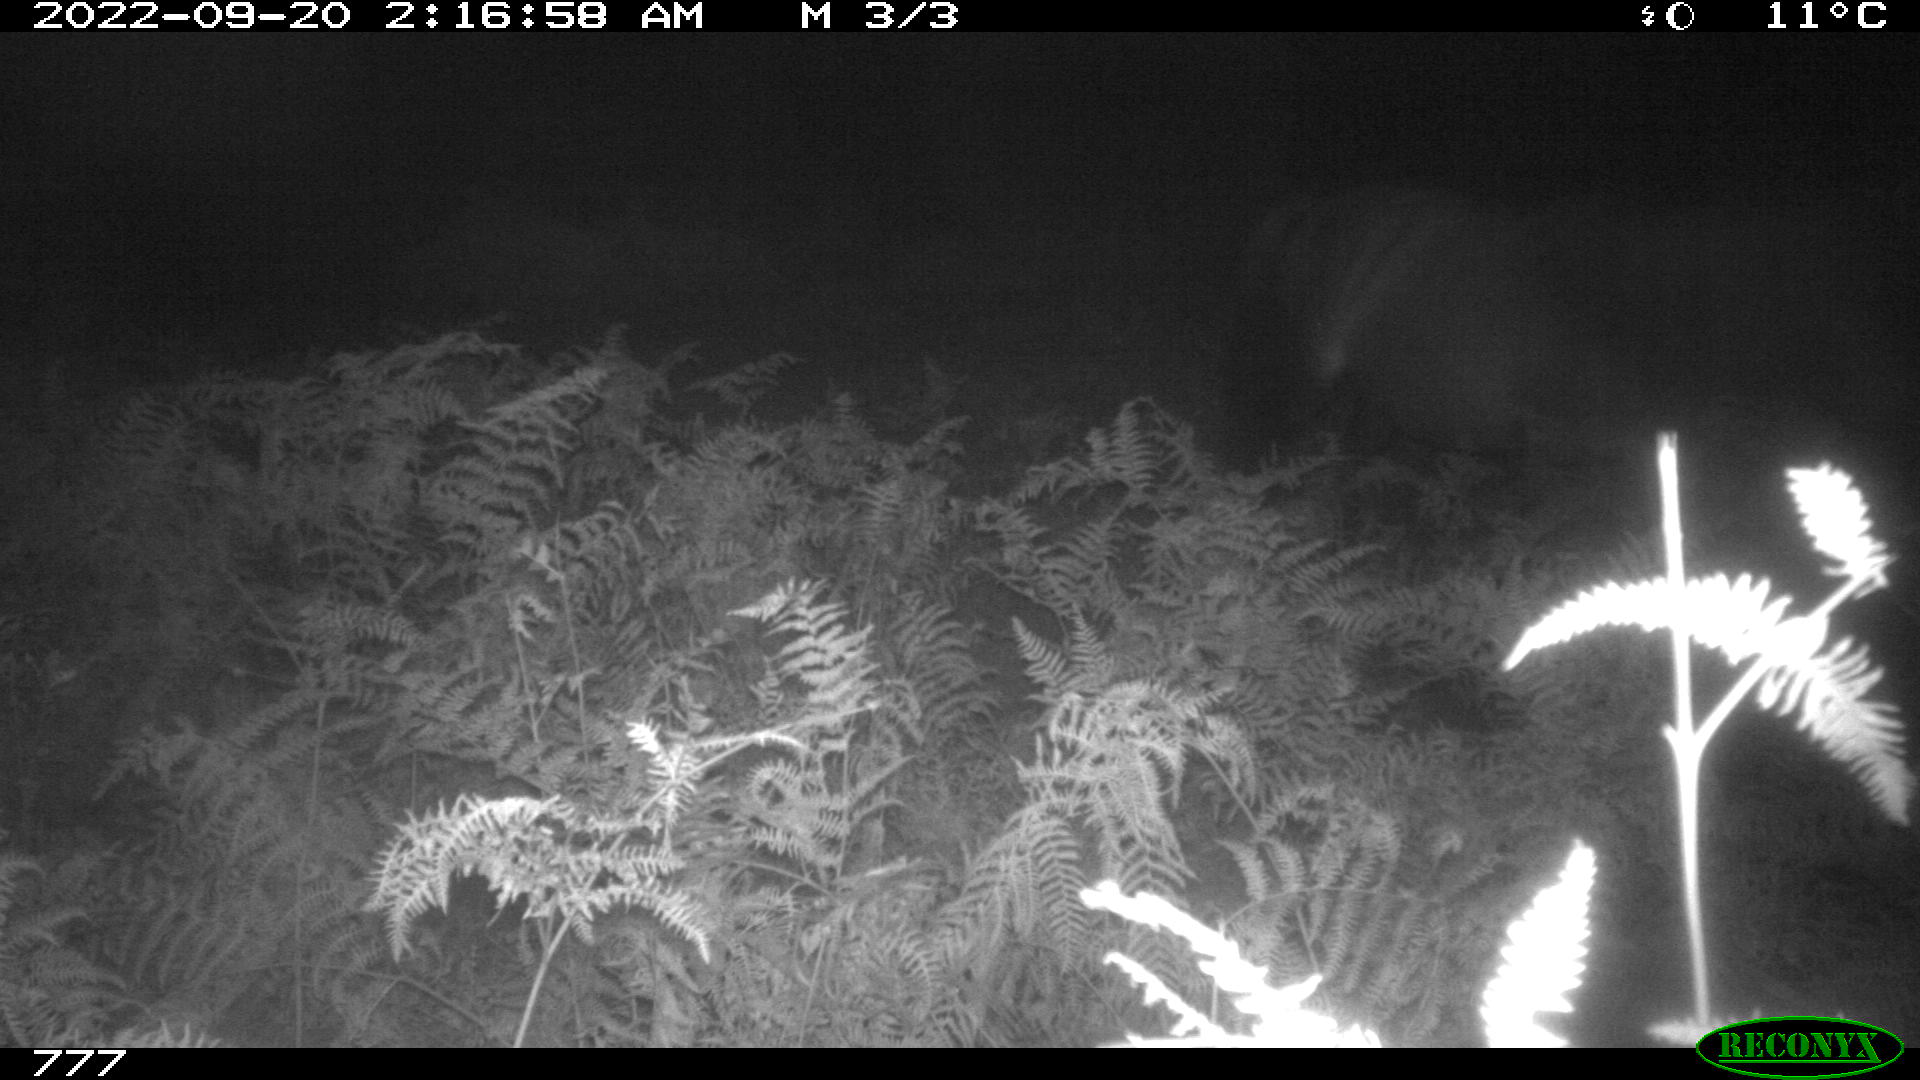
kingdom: Animalia
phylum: Chordata
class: Mammalia
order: Perissodactyla
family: Equidae
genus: Equus
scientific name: Equus caballus
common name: Horse
